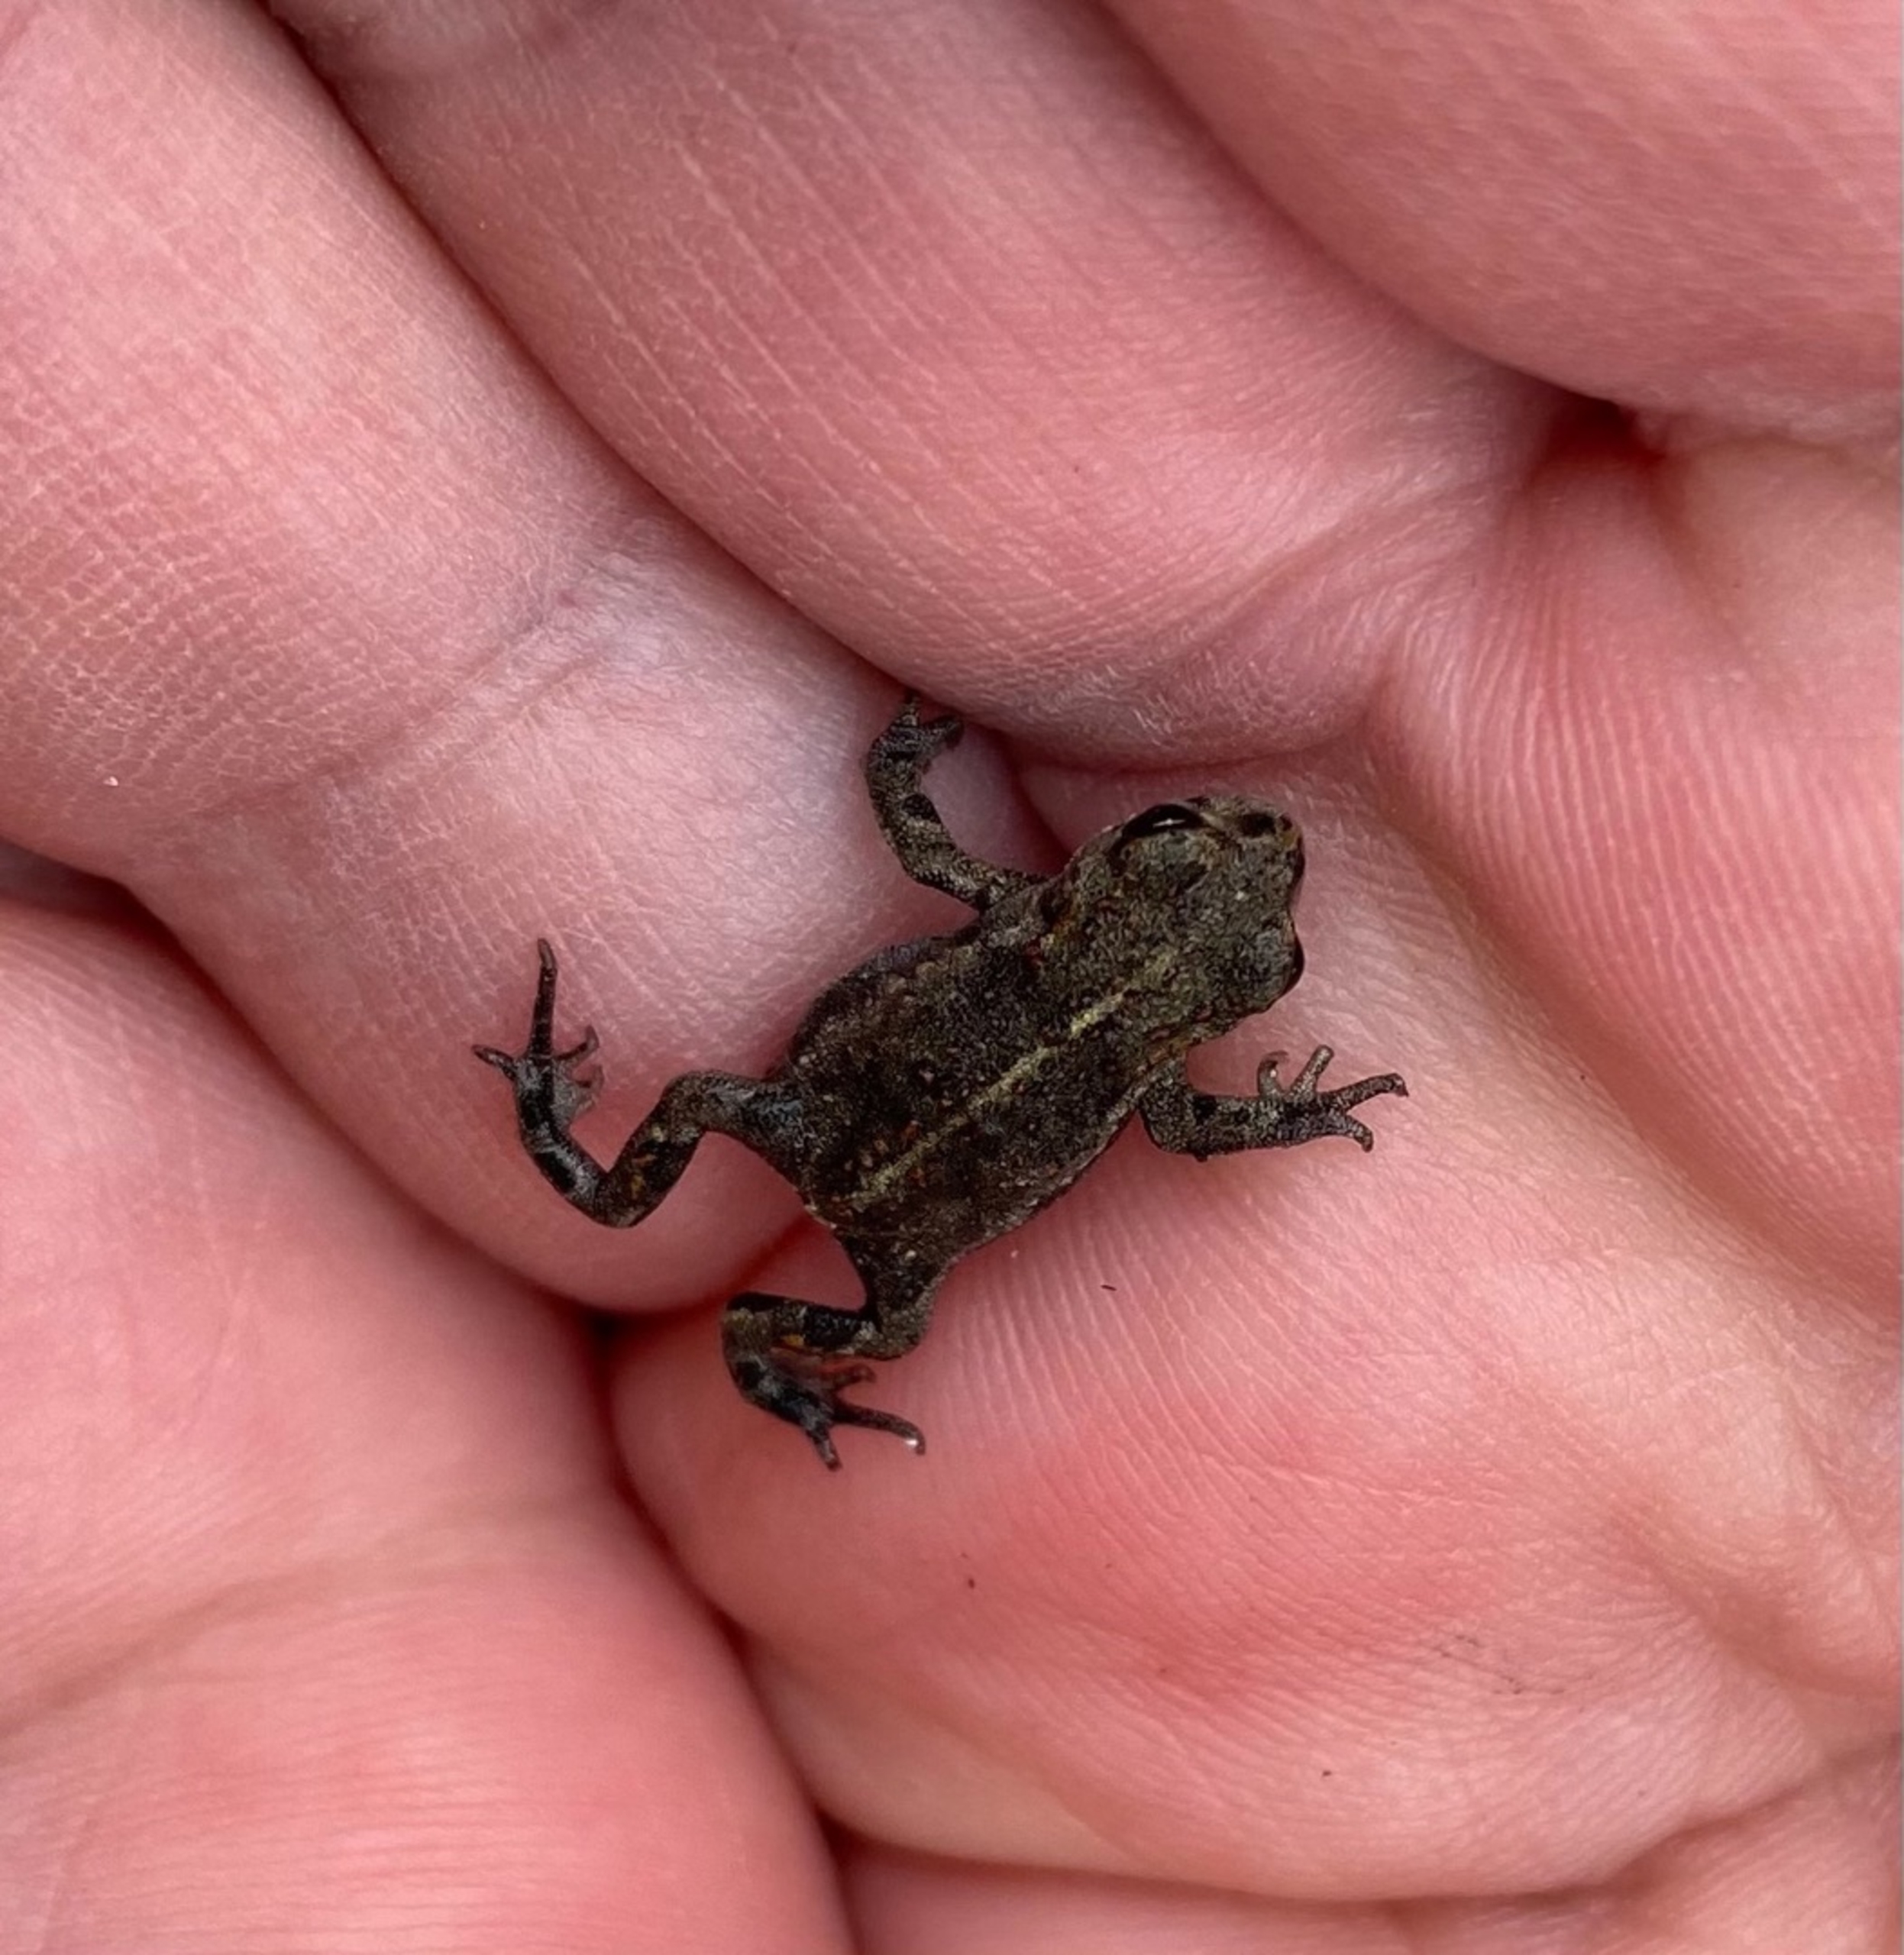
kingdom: Animalia
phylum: Chordata
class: Amphibia
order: Anura
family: Bufonidae
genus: Epidalea
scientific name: Epidalea calamita
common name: Strandtudse
